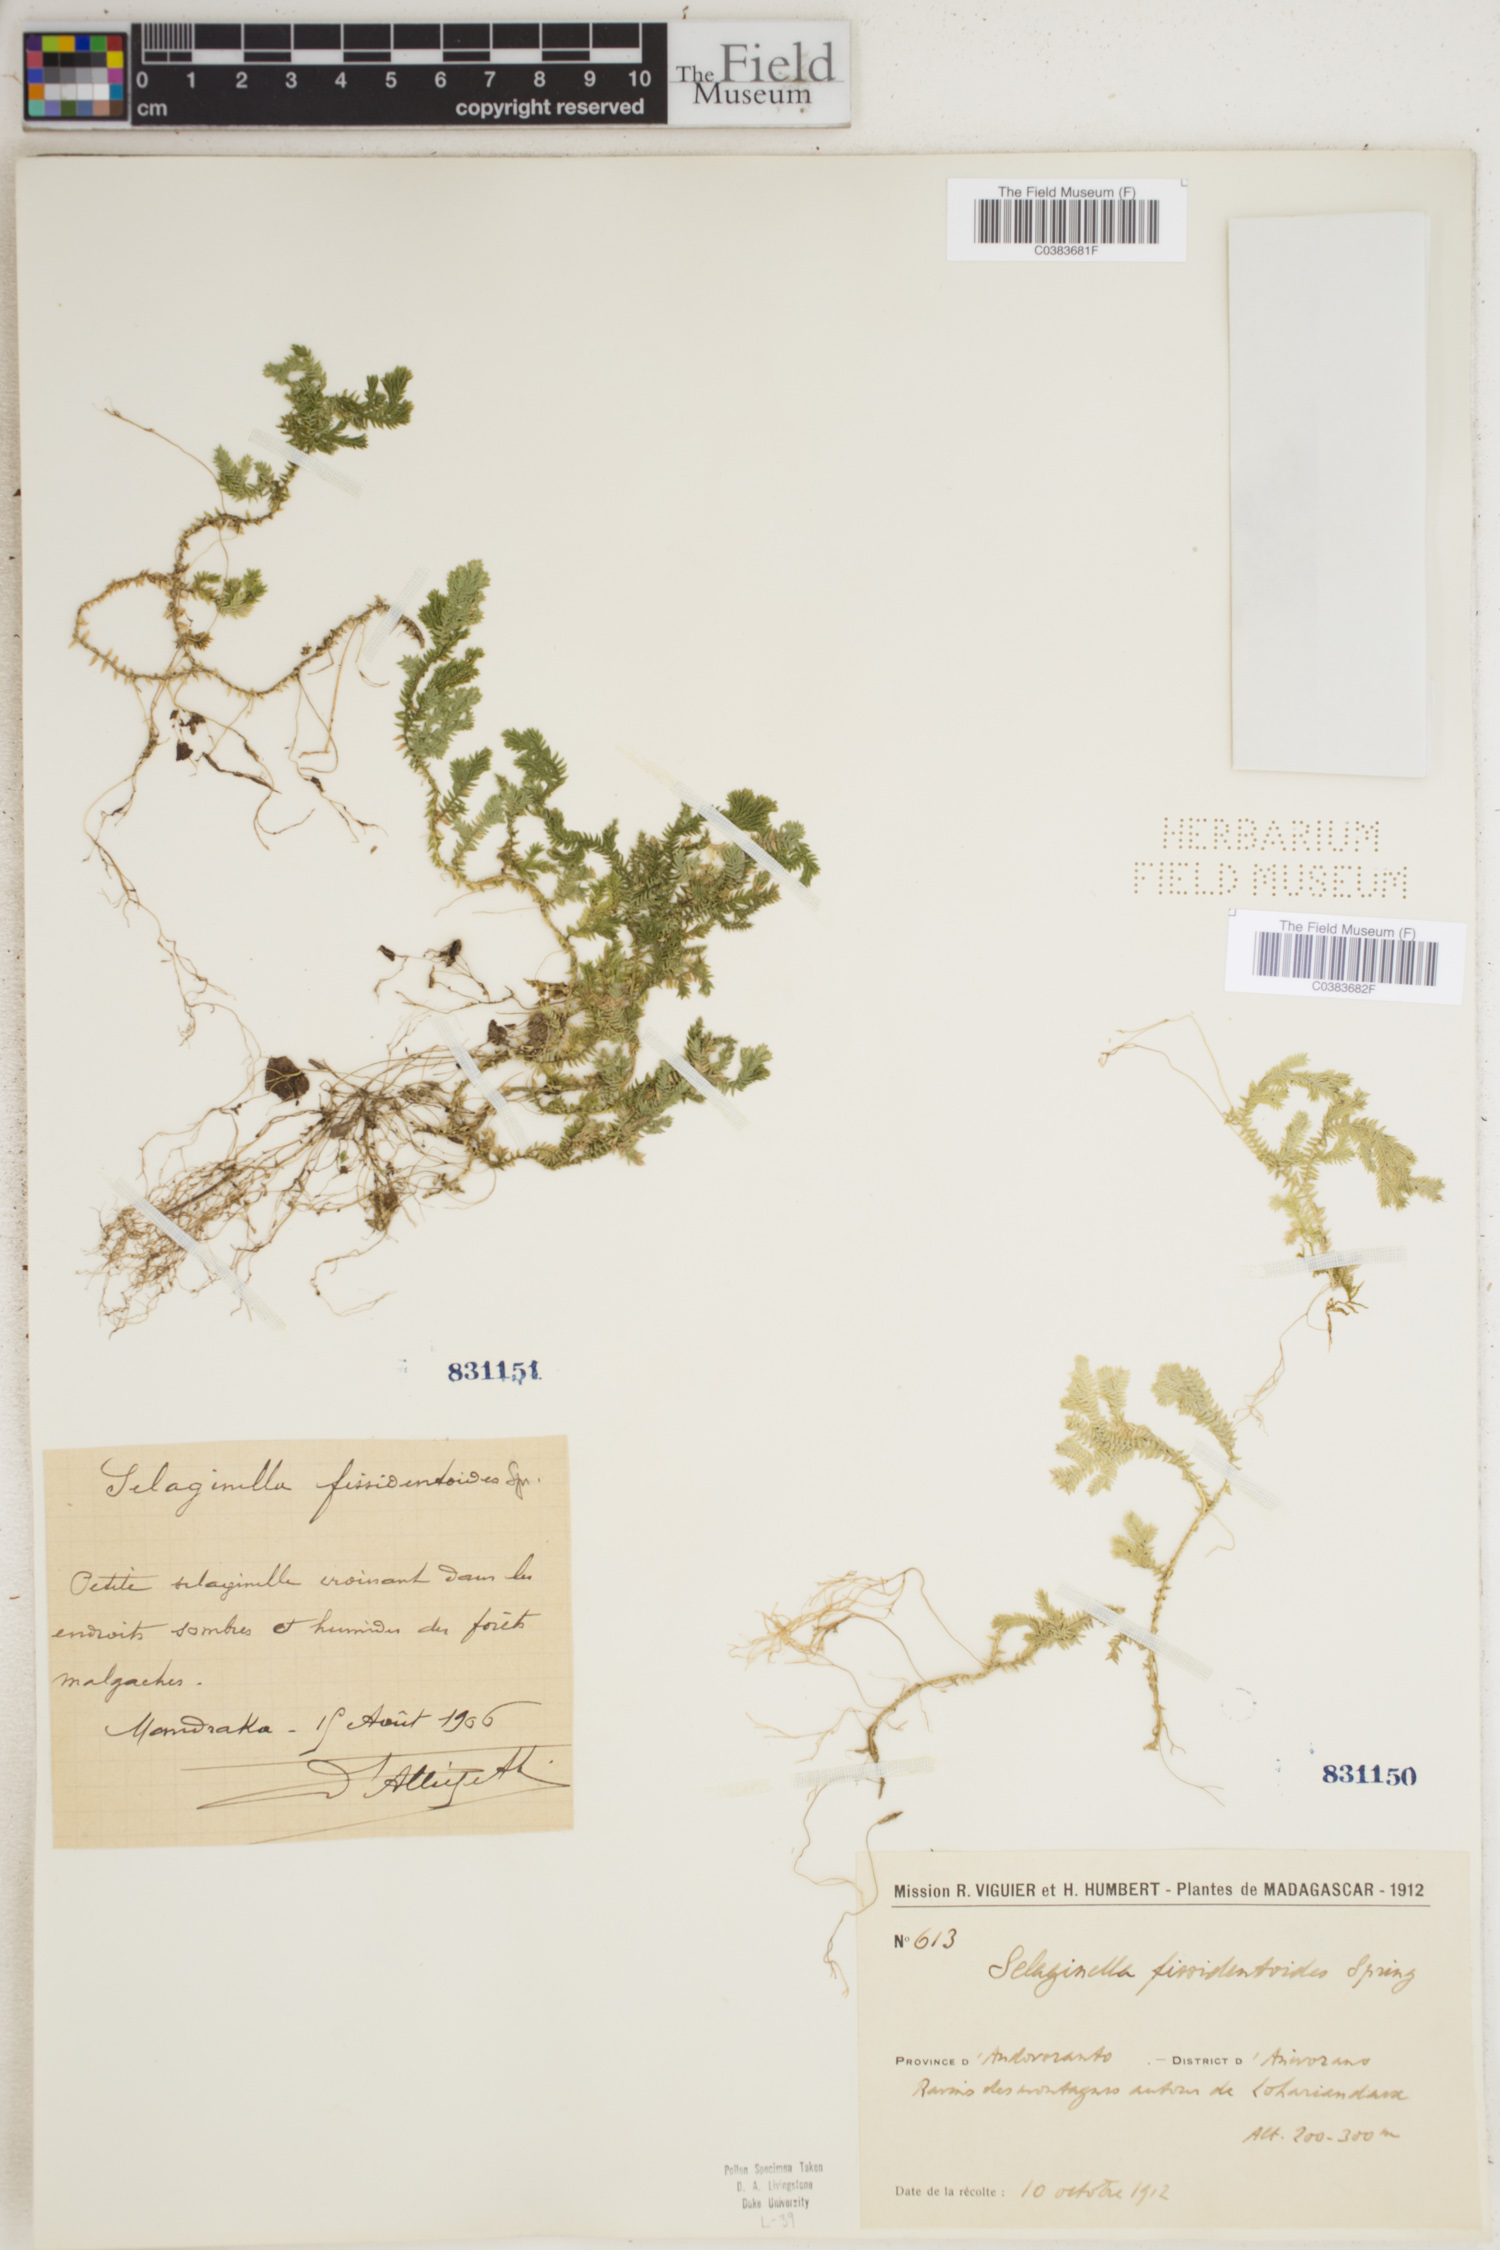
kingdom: Plantae
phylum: Tracheophyta
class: Lycopodiopsida
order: Selaginellales
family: Selaginellaceae
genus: Selaginella
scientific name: Selaginella fissidentoides
